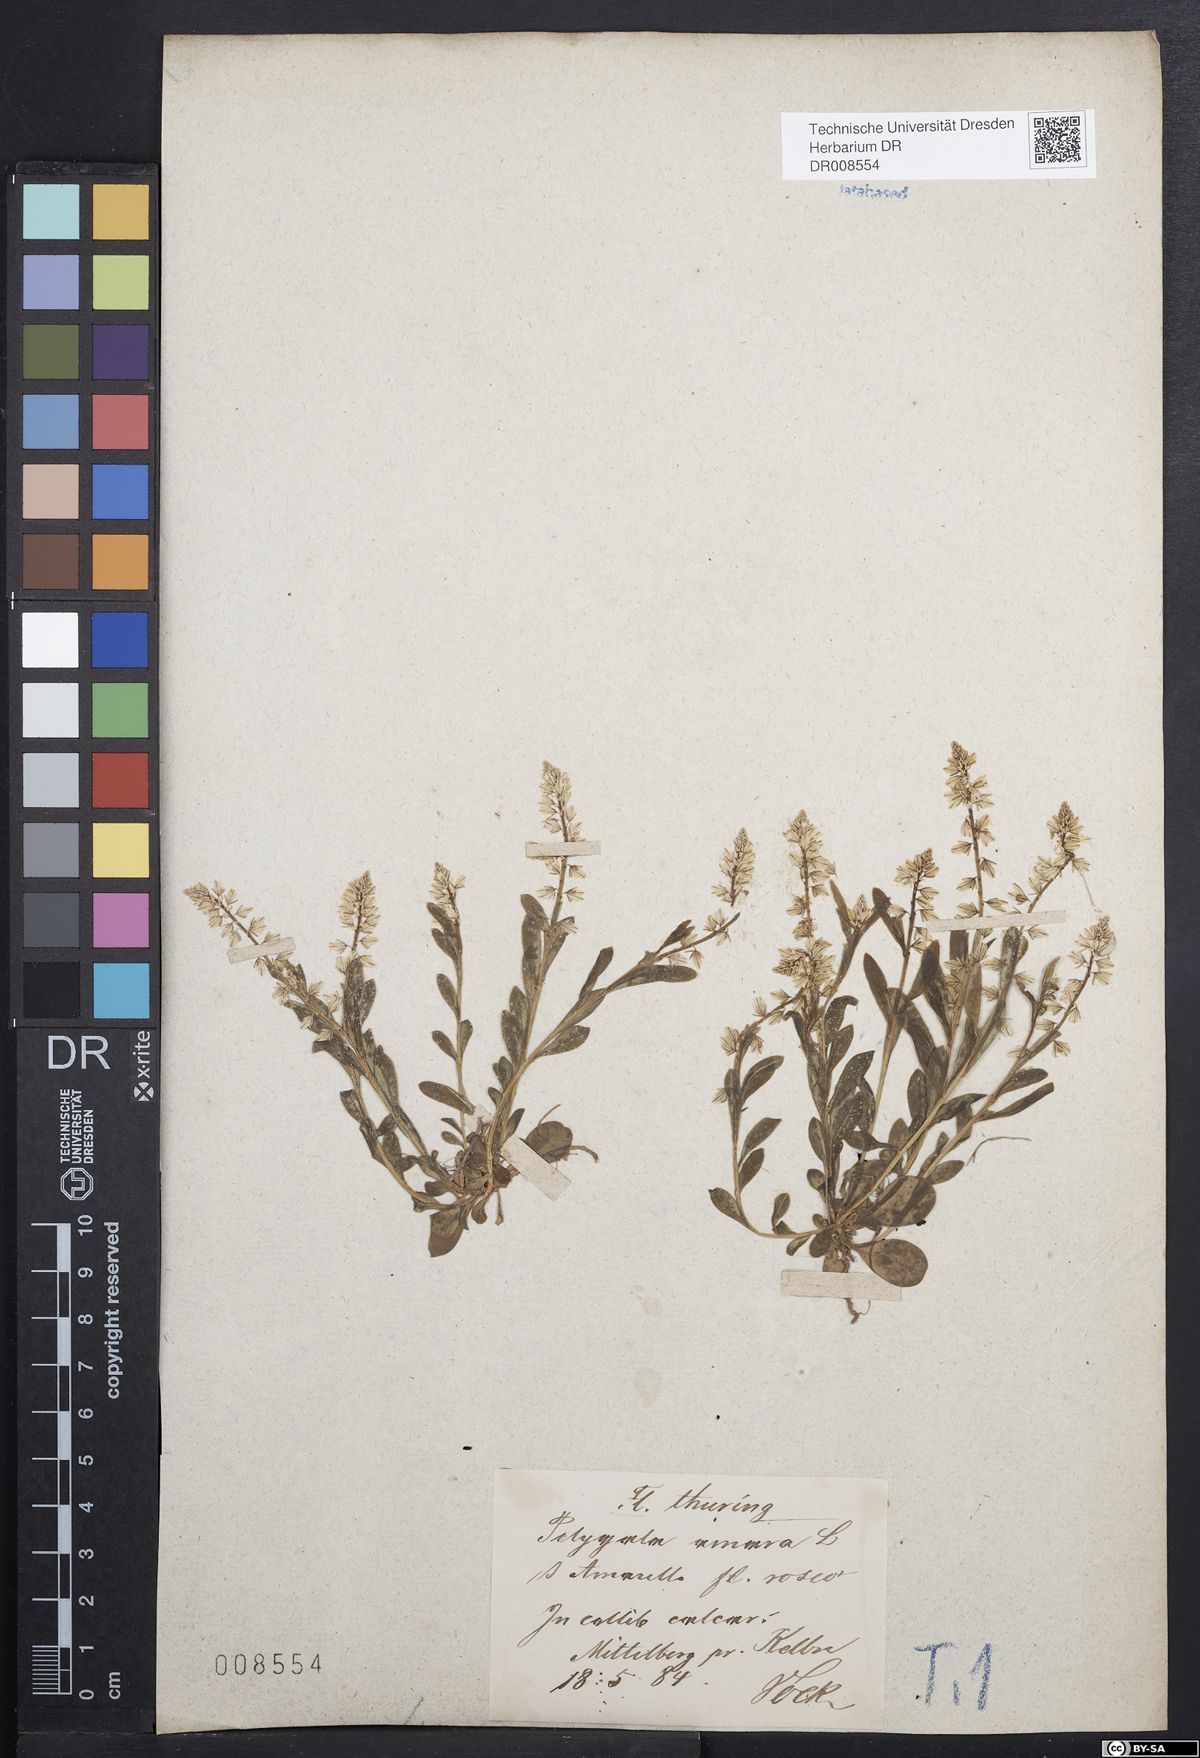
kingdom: Plantae
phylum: Tracheophyta
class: Magnoliopsida
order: Fabales
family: Polygalaceae
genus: Polygala
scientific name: Polygala amarella
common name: Dwarf milkwort
